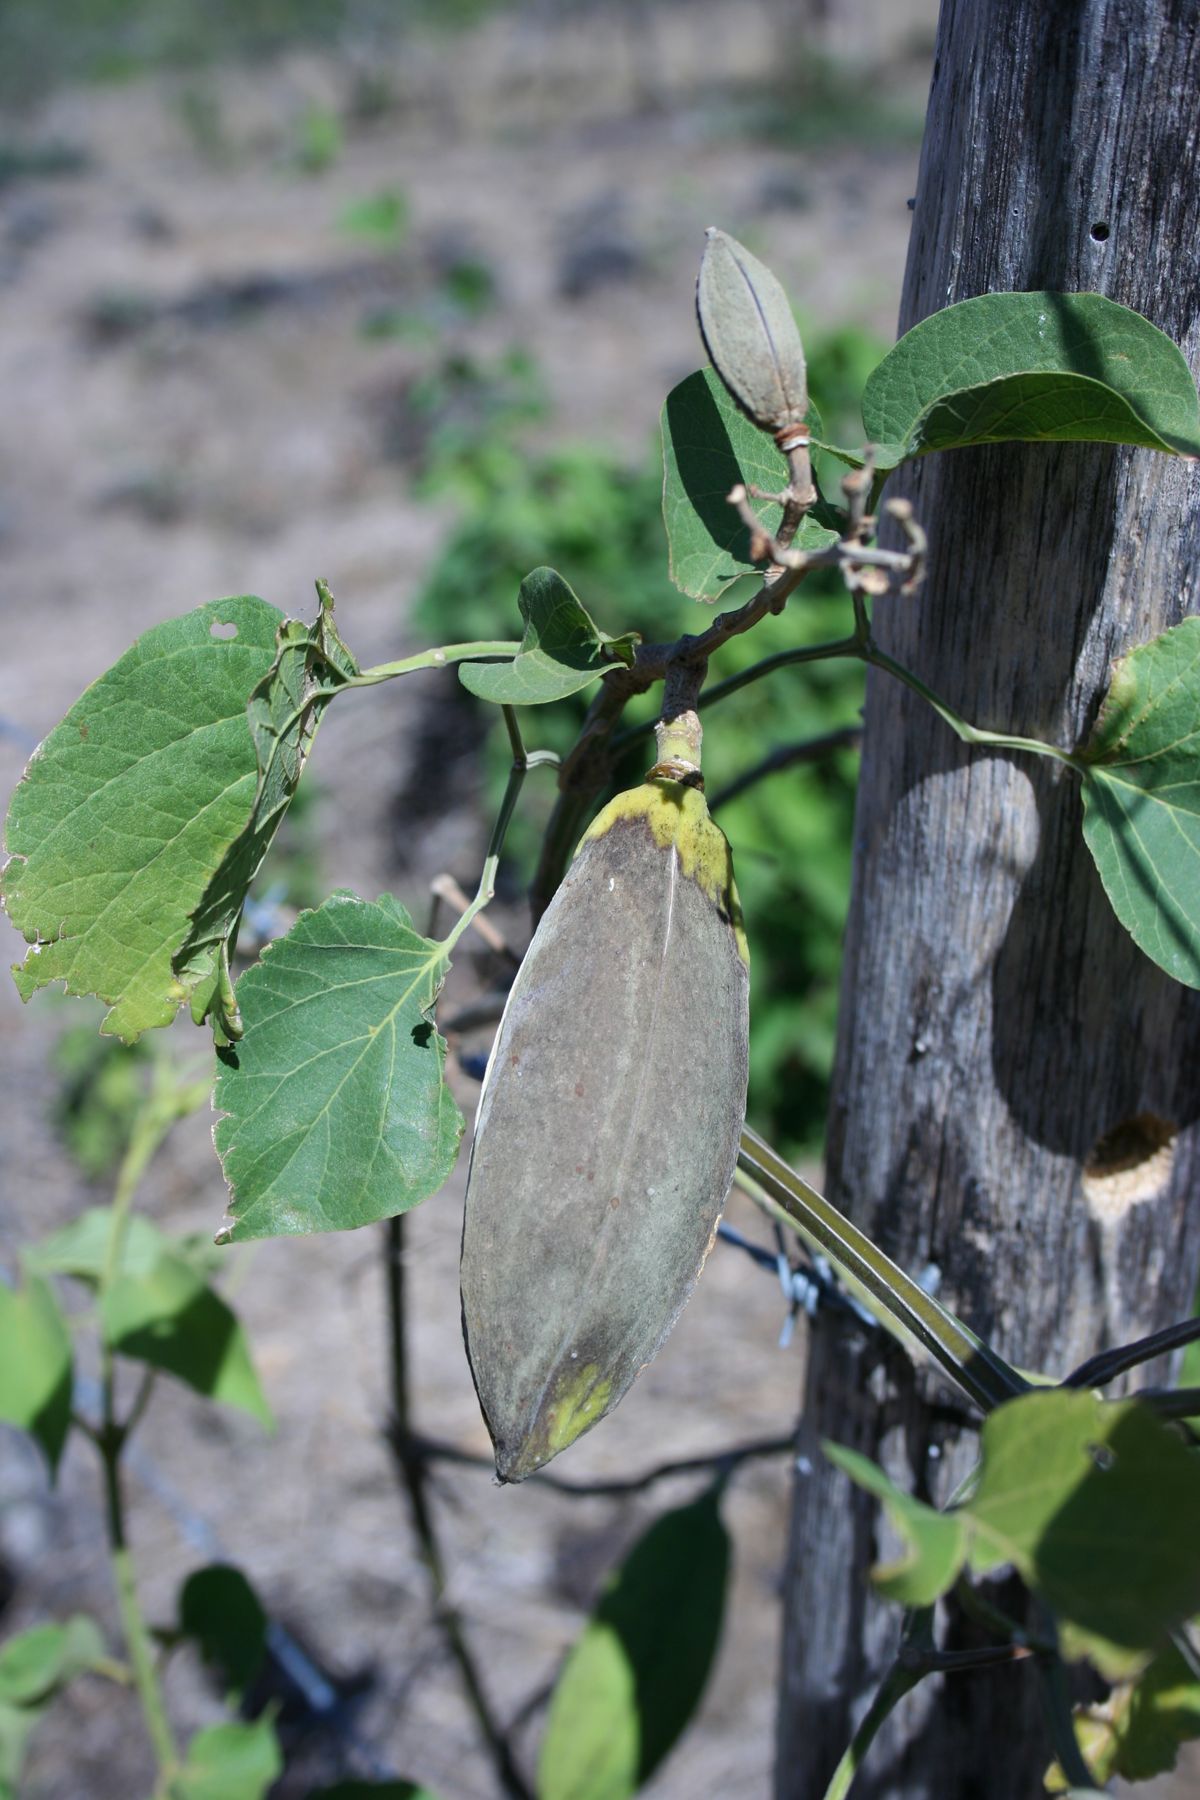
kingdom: Plantae
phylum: Tracheophyta
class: Magnoliopsida
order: Lamiales
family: Bignoniaceae
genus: Amphilophium
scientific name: Amphilophium paniculatum
